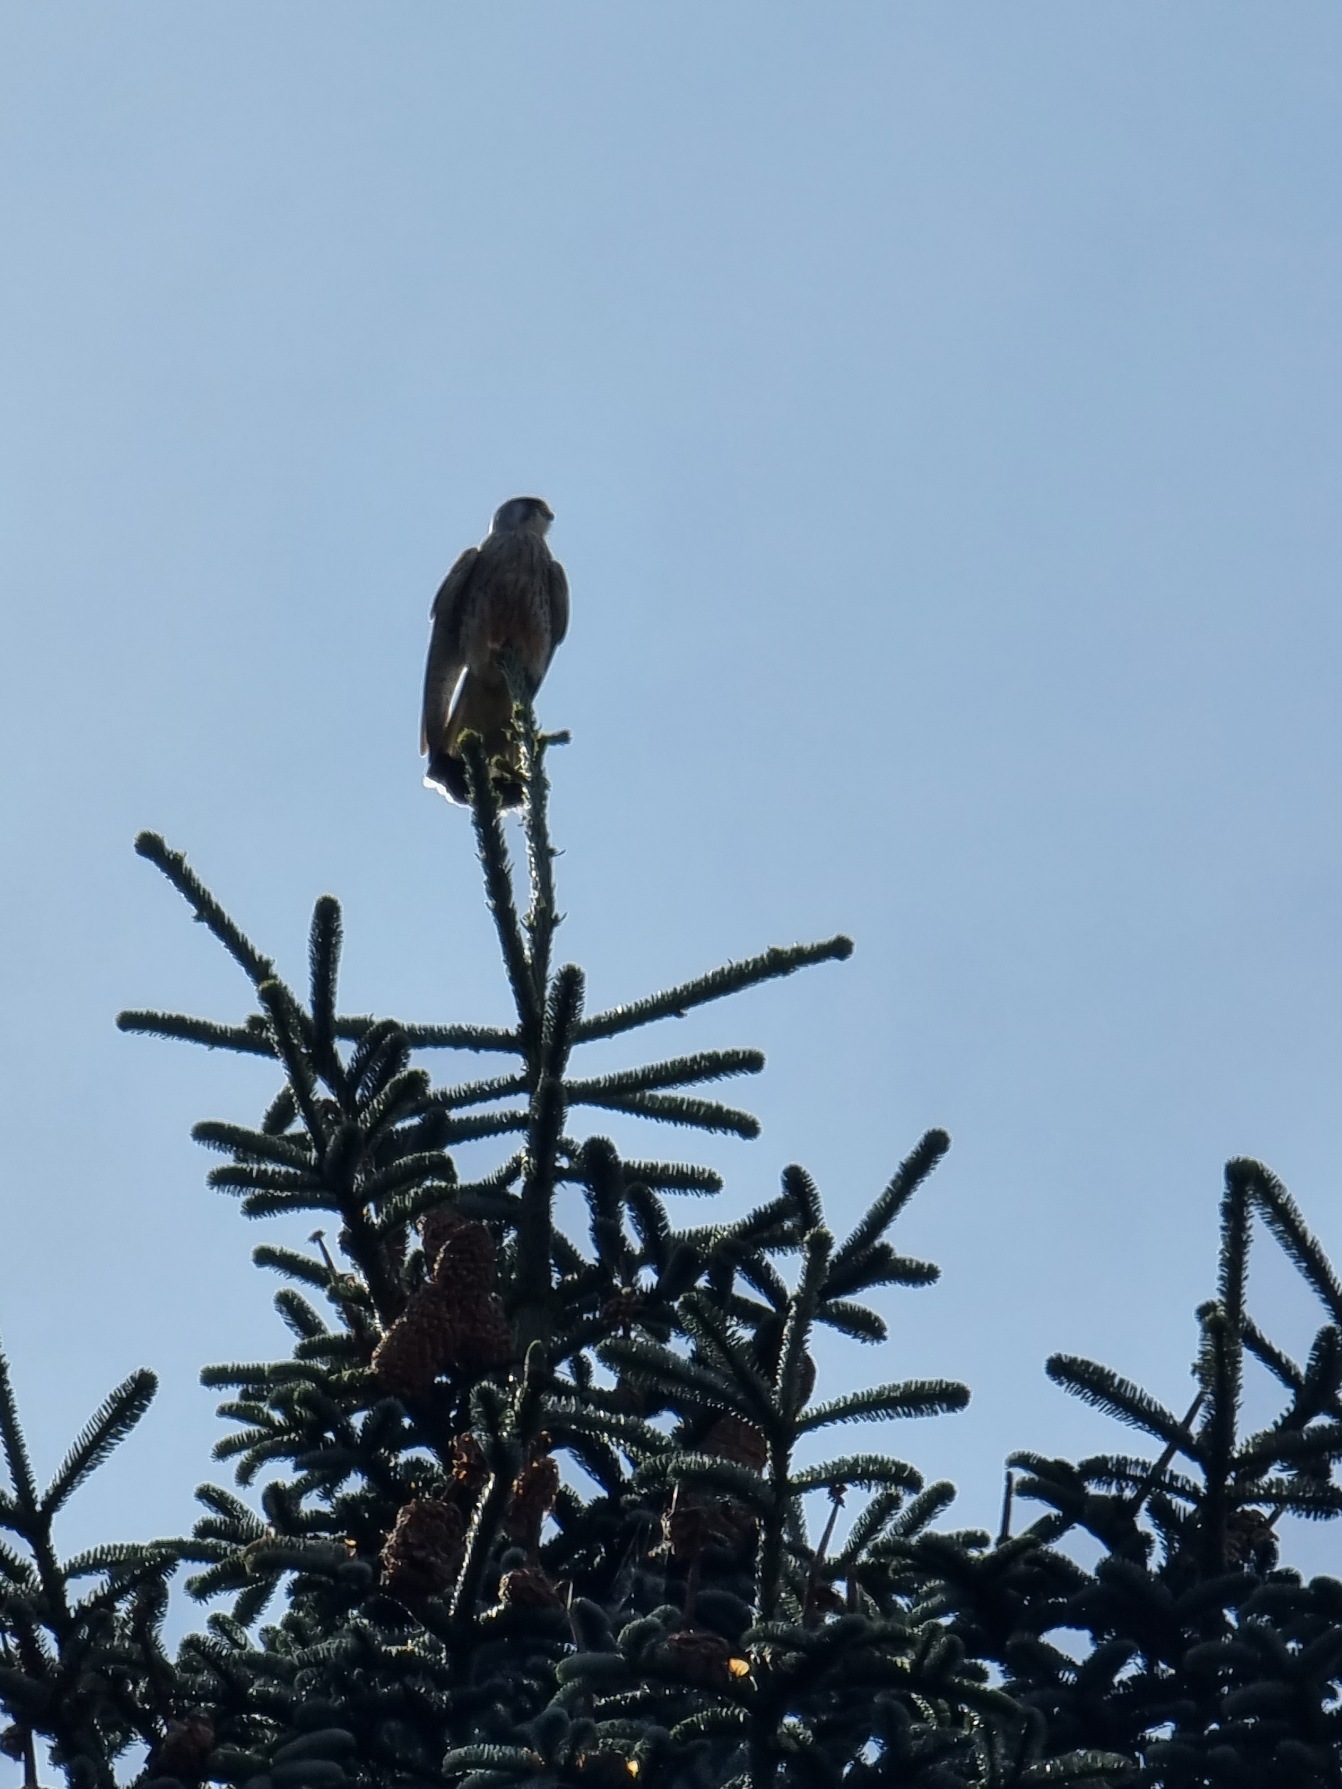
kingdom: Animalia
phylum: Chordata
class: Aves
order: Falconiformes
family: Falconidae
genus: Falco
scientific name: Falco tinnunculus
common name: Tårnfalk
